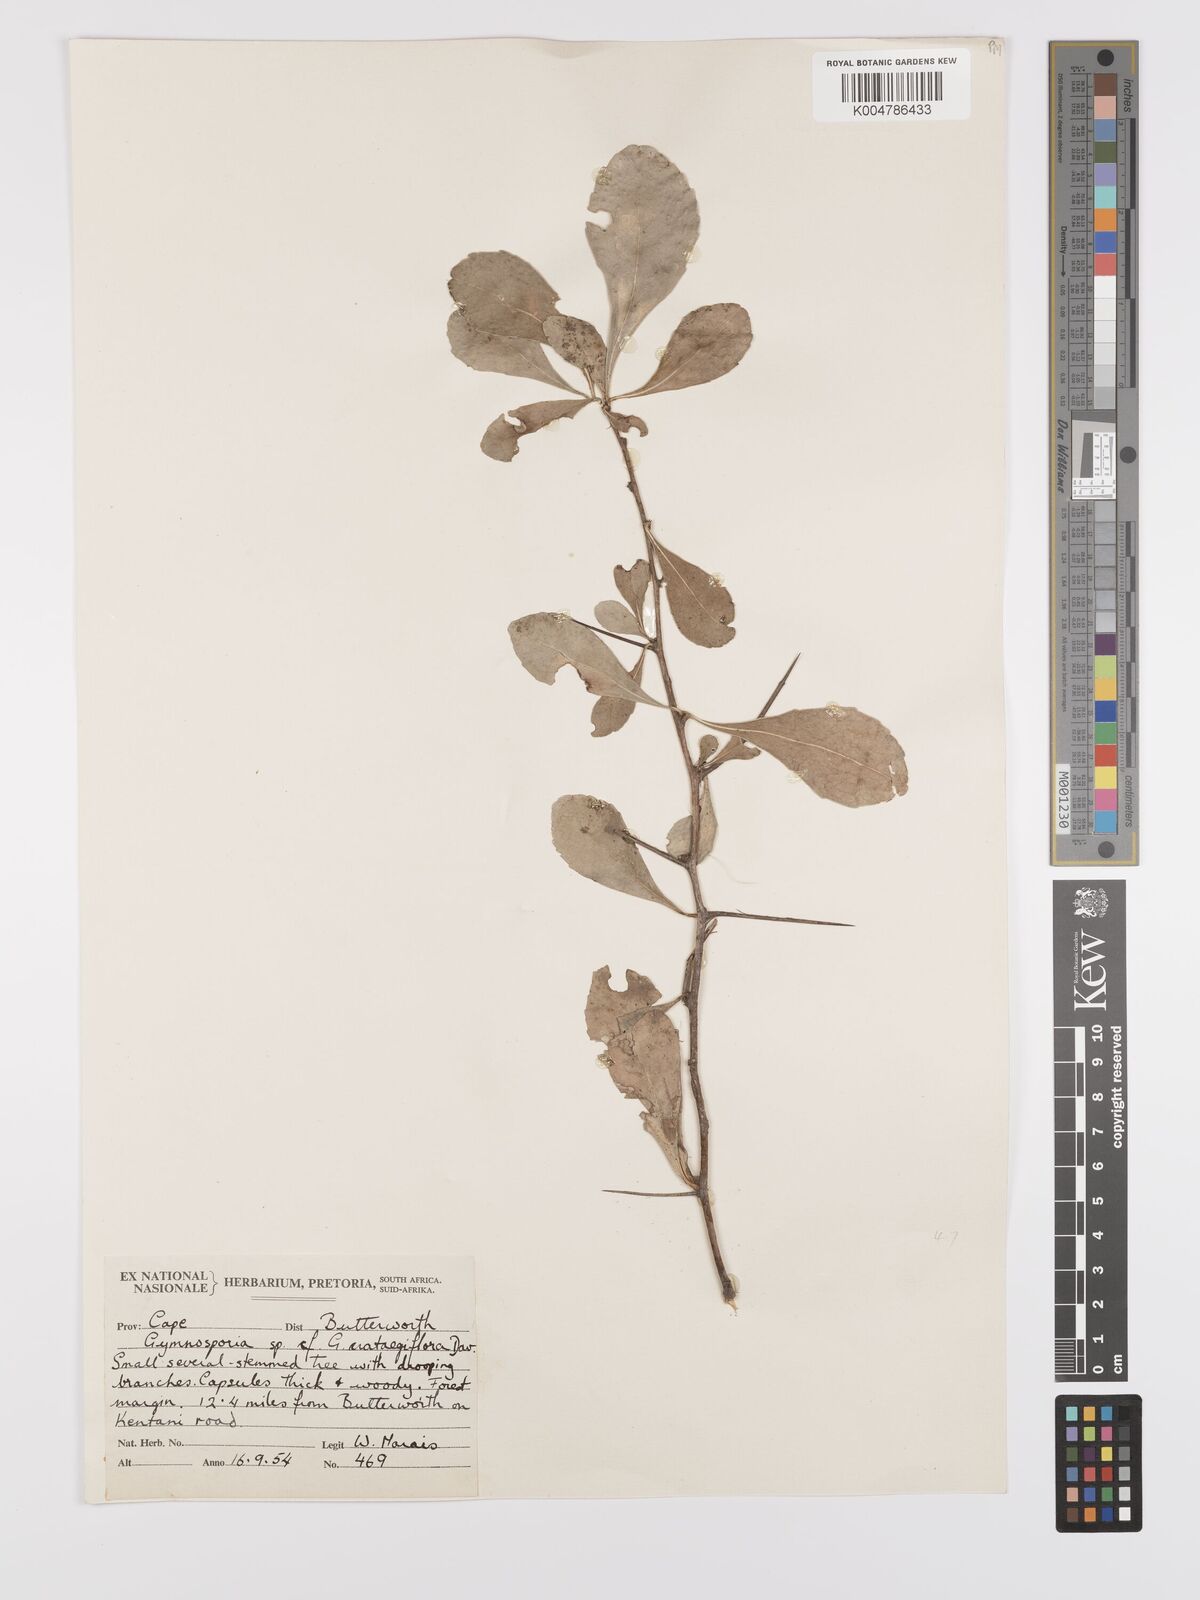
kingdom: Plantae
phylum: Tracheophyta
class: Magnoliopsida
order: Celastrales
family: Celastraceae
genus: Gymnosporia
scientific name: Gymnosporia grandifolia
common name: Large-fruited forest spike-thorn
